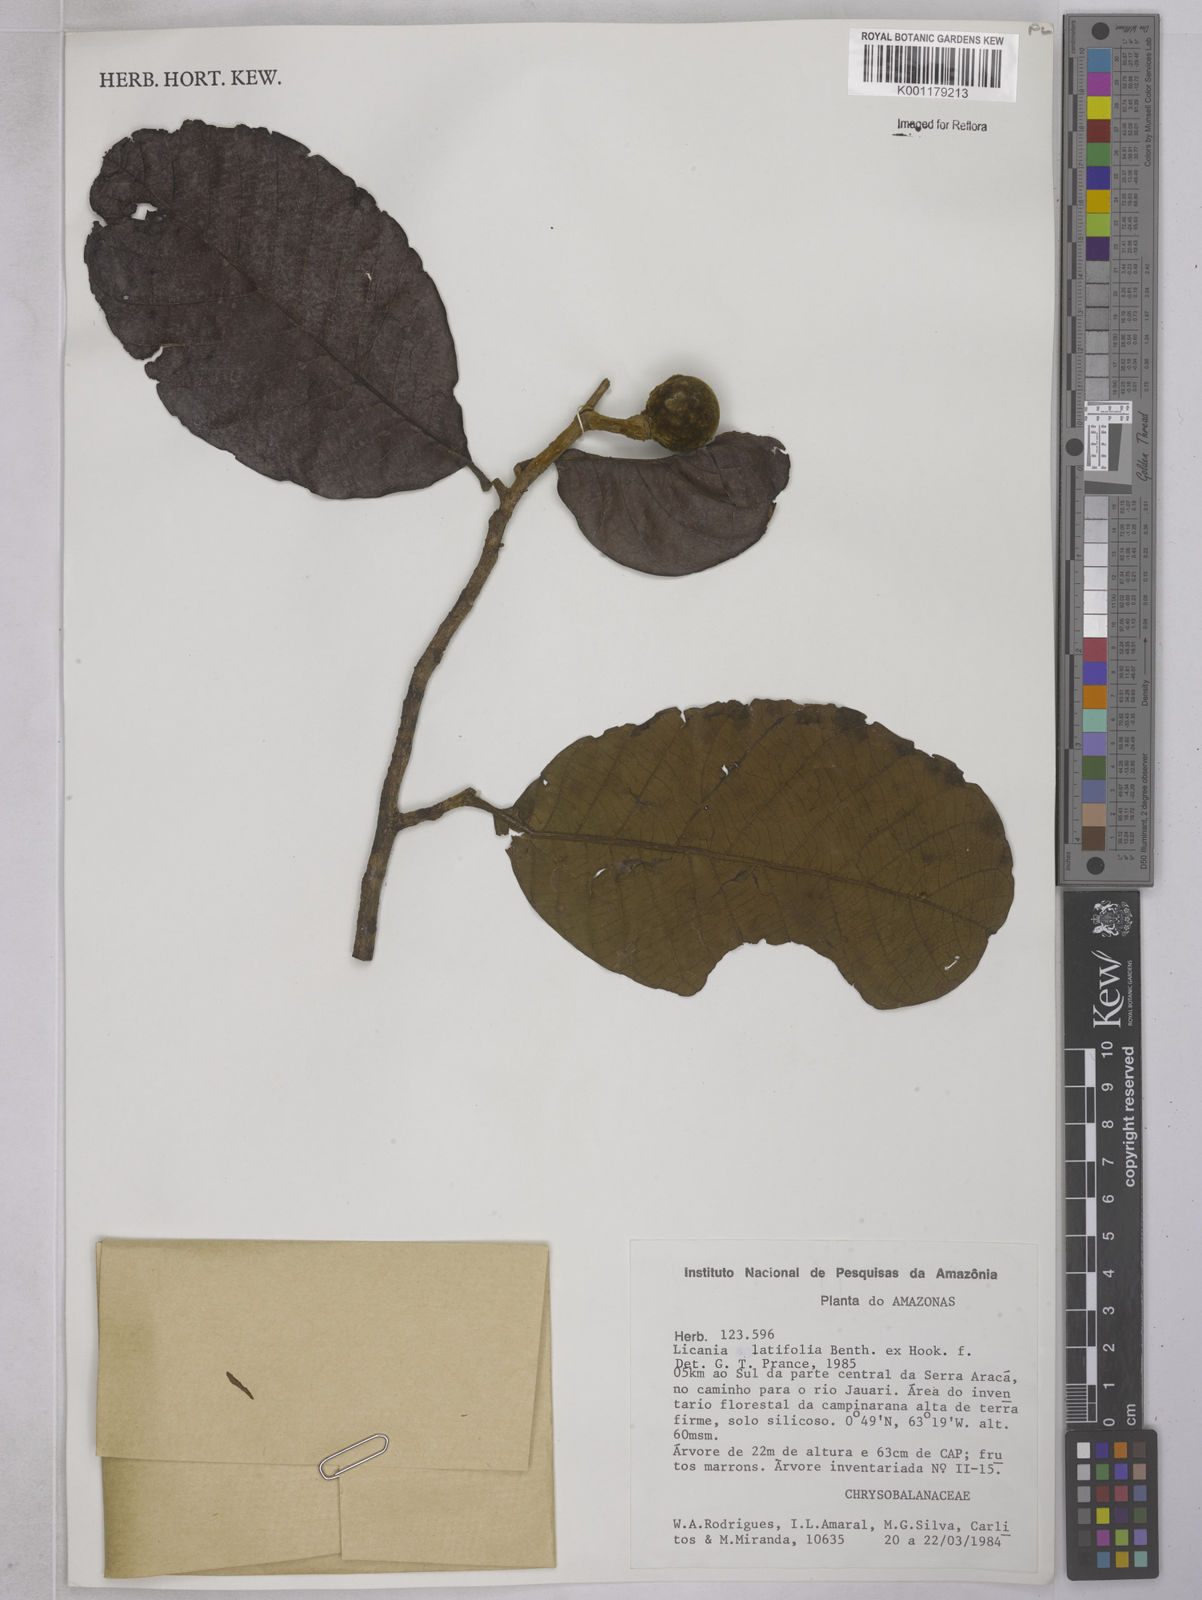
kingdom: Plantae
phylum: Tracheophyta
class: Magnoliopsida
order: Malpighiales
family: Chrysobalanaceae
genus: Hymenopus
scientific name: Hymenopus latifolius
